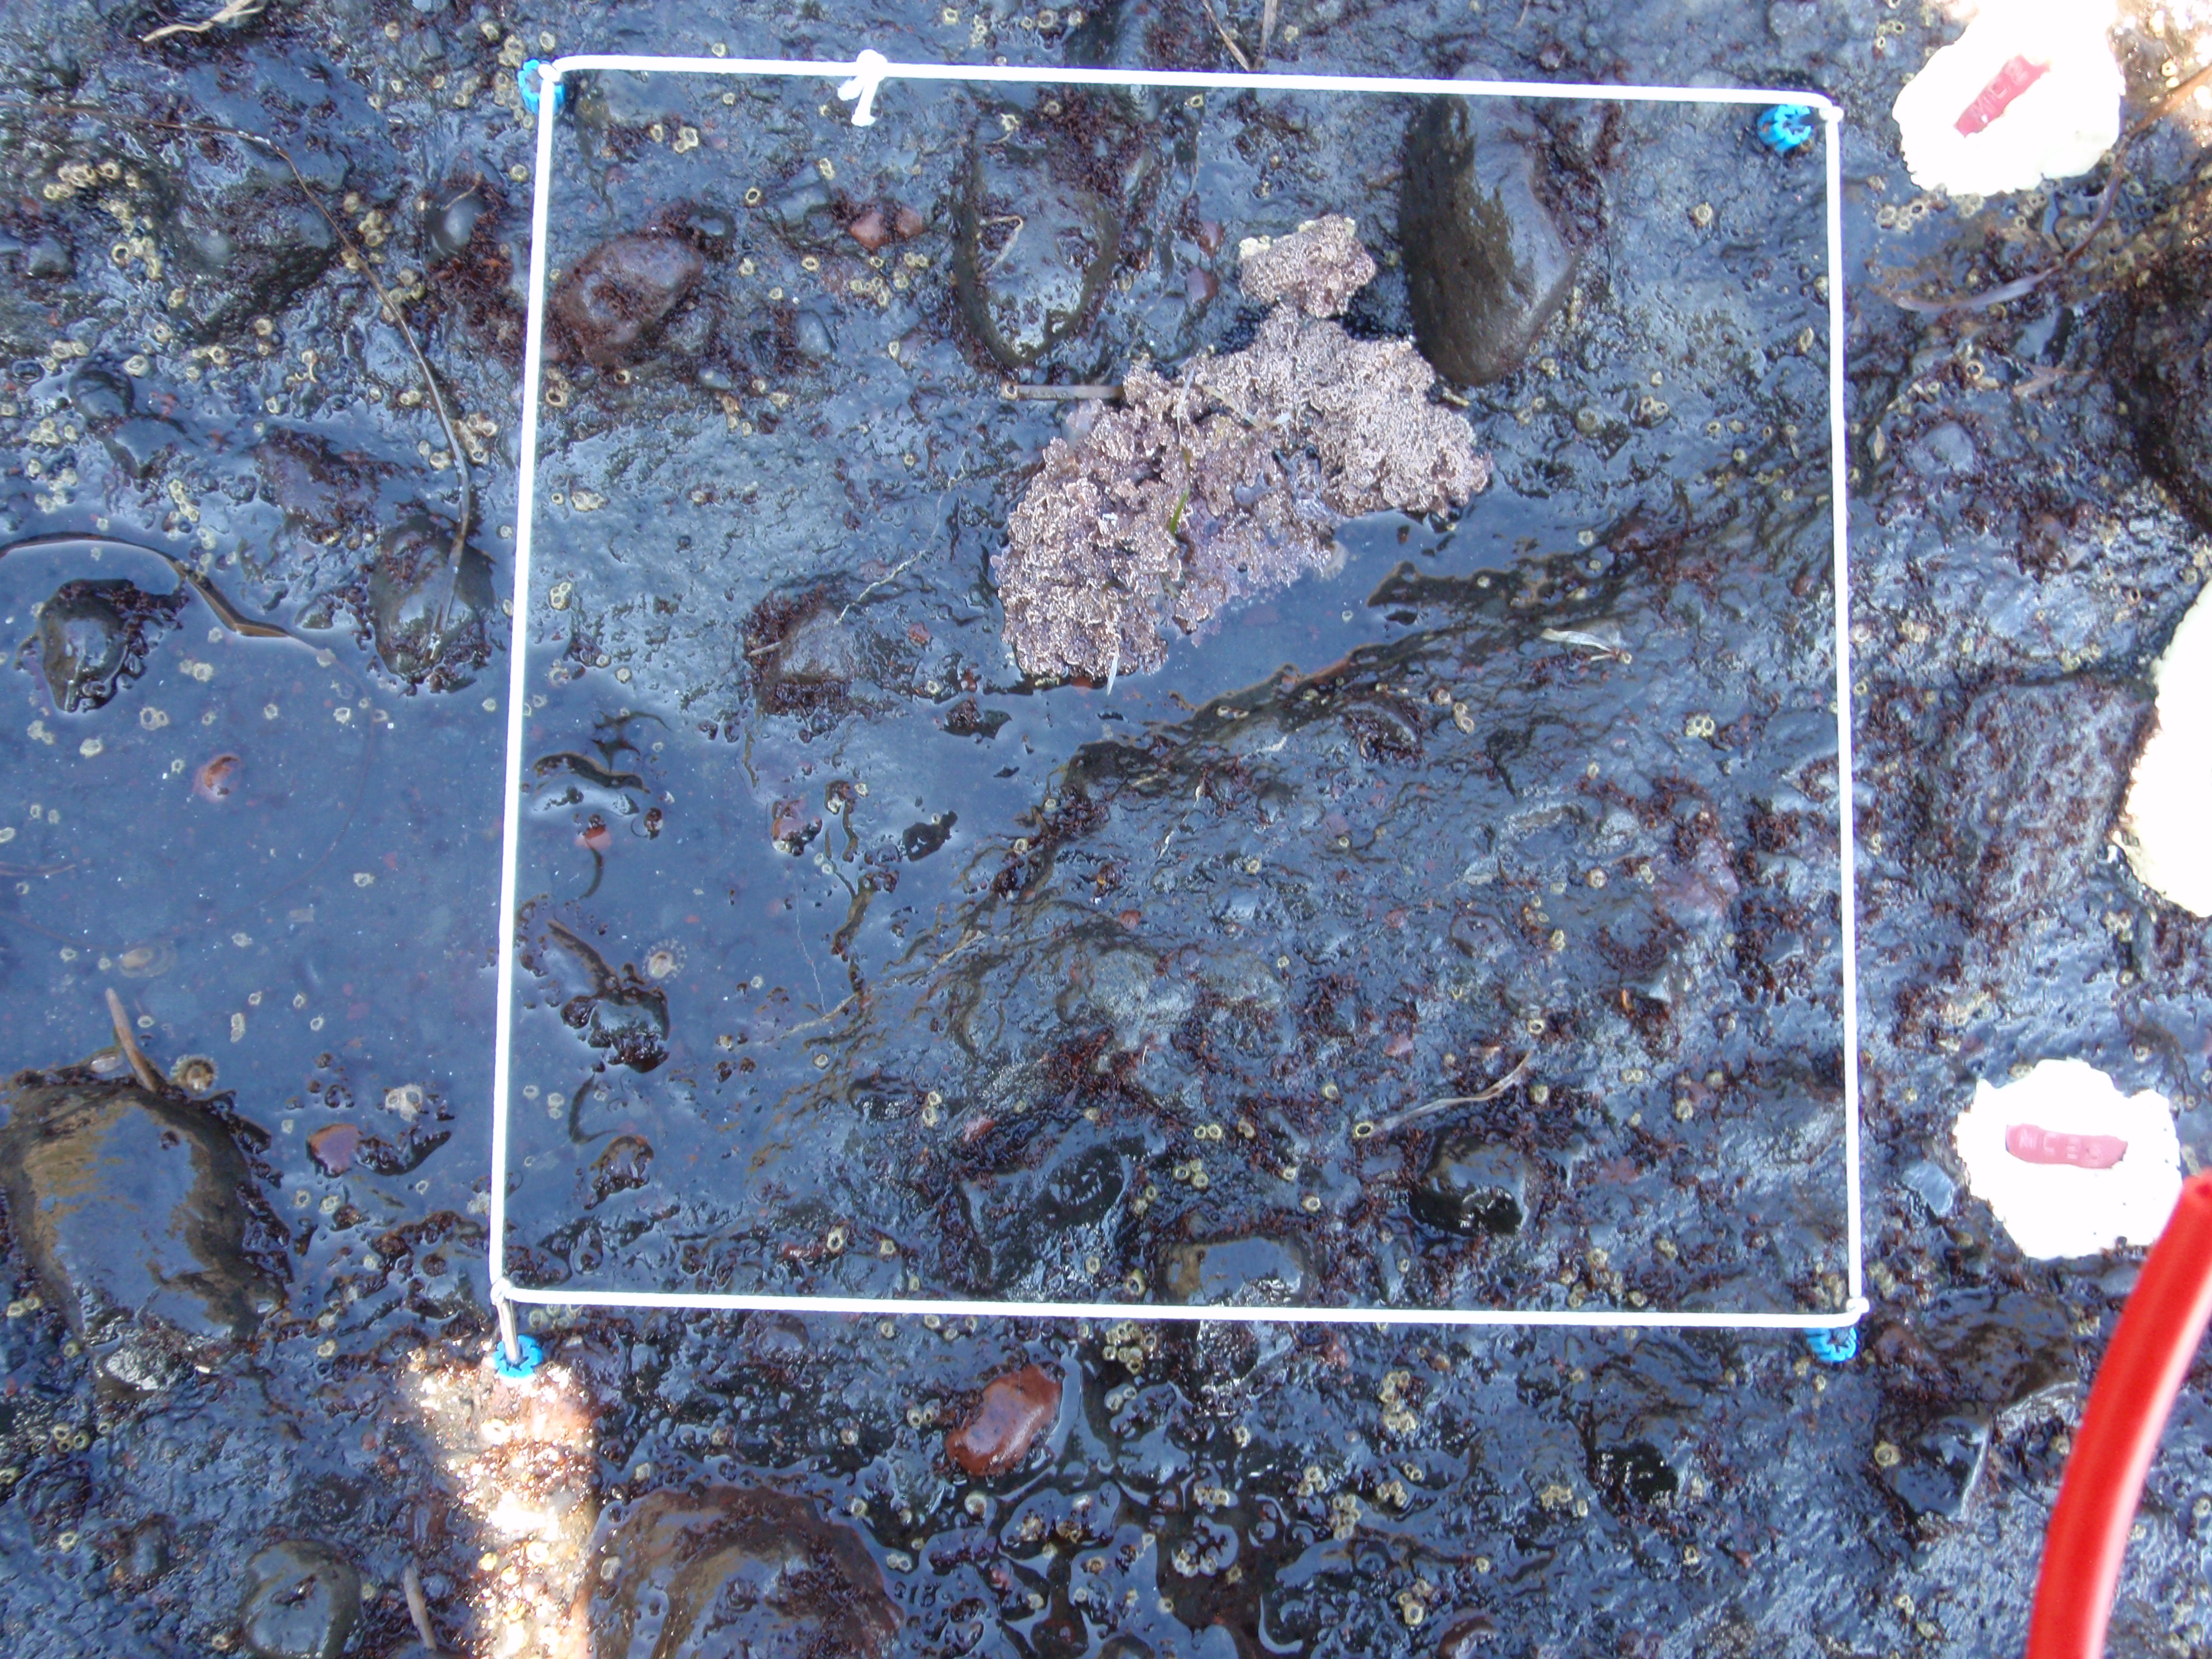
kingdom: Plantae
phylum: Rhodophyta
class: Florideophyceae
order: Corallinales
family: Corallinaceae
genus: Corallina
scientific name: Corallina pilulifera
